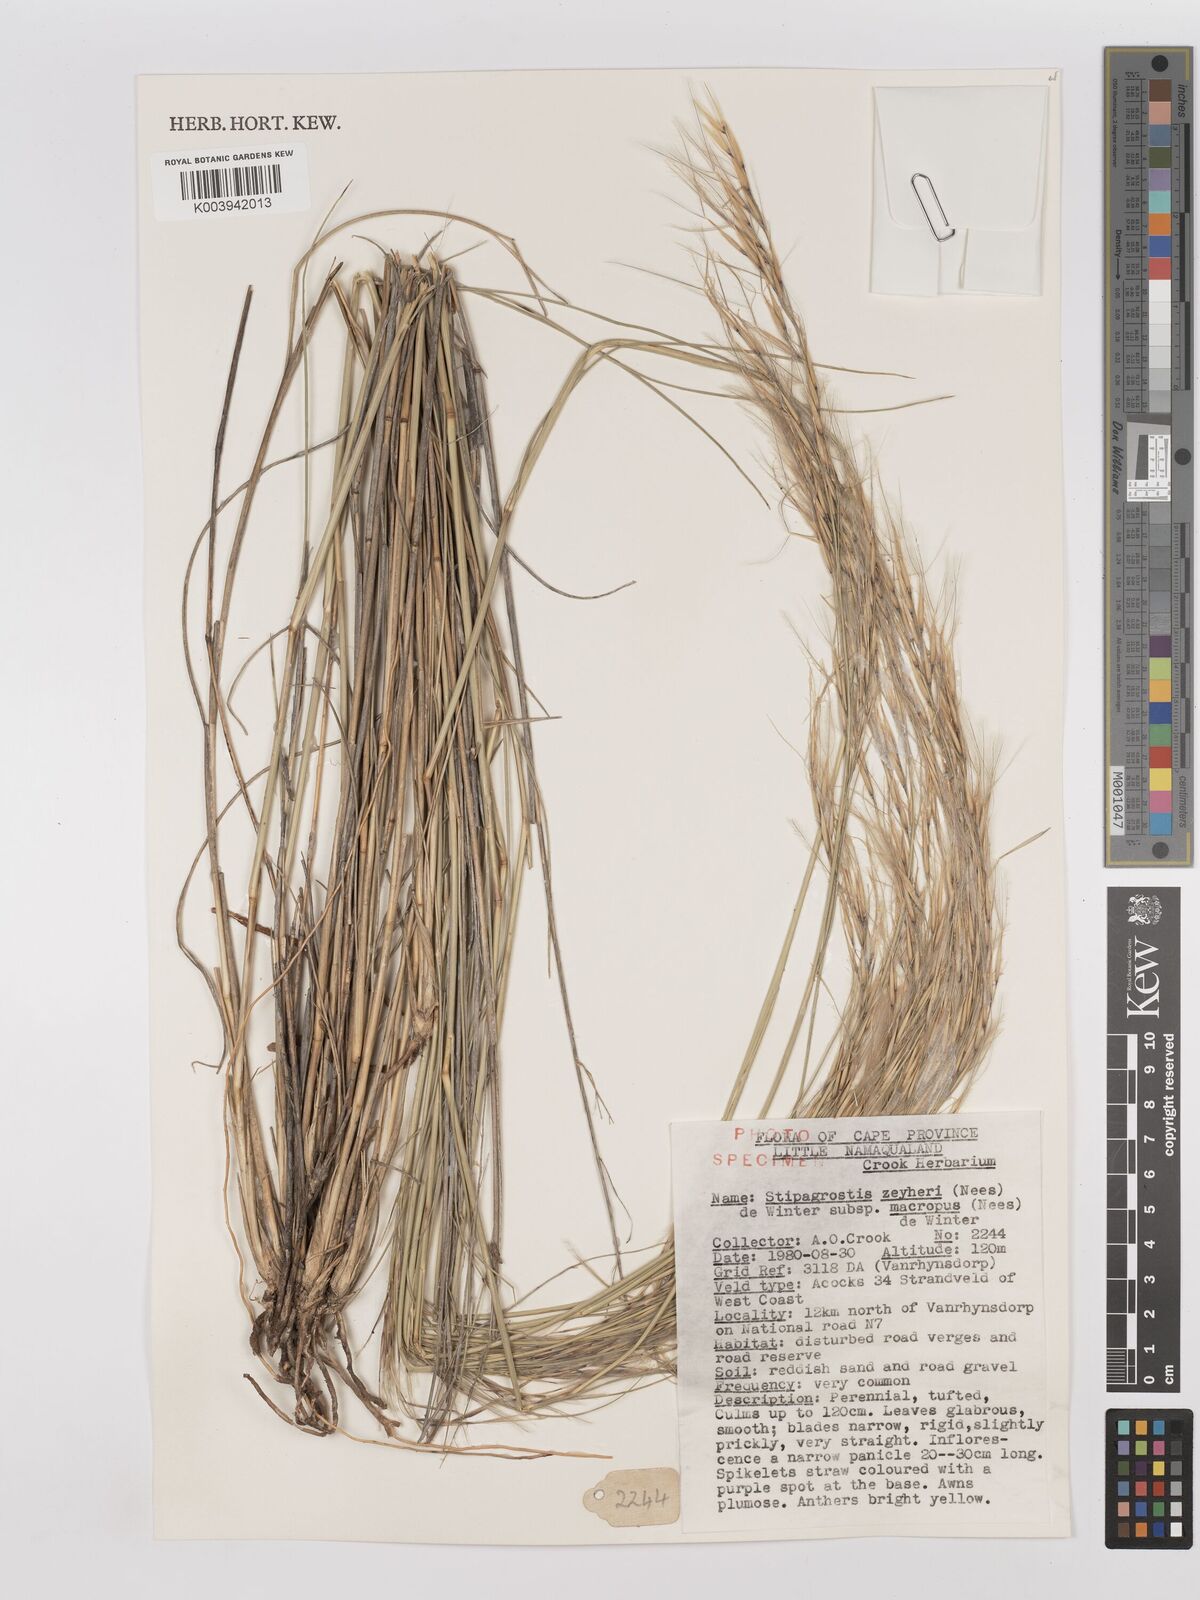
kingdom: Plantae
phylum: Tracheophyta
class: Liliopsida
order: Poales
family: Poaceae
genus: Stipagrostis
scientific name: Stipagrostis zeyheri
